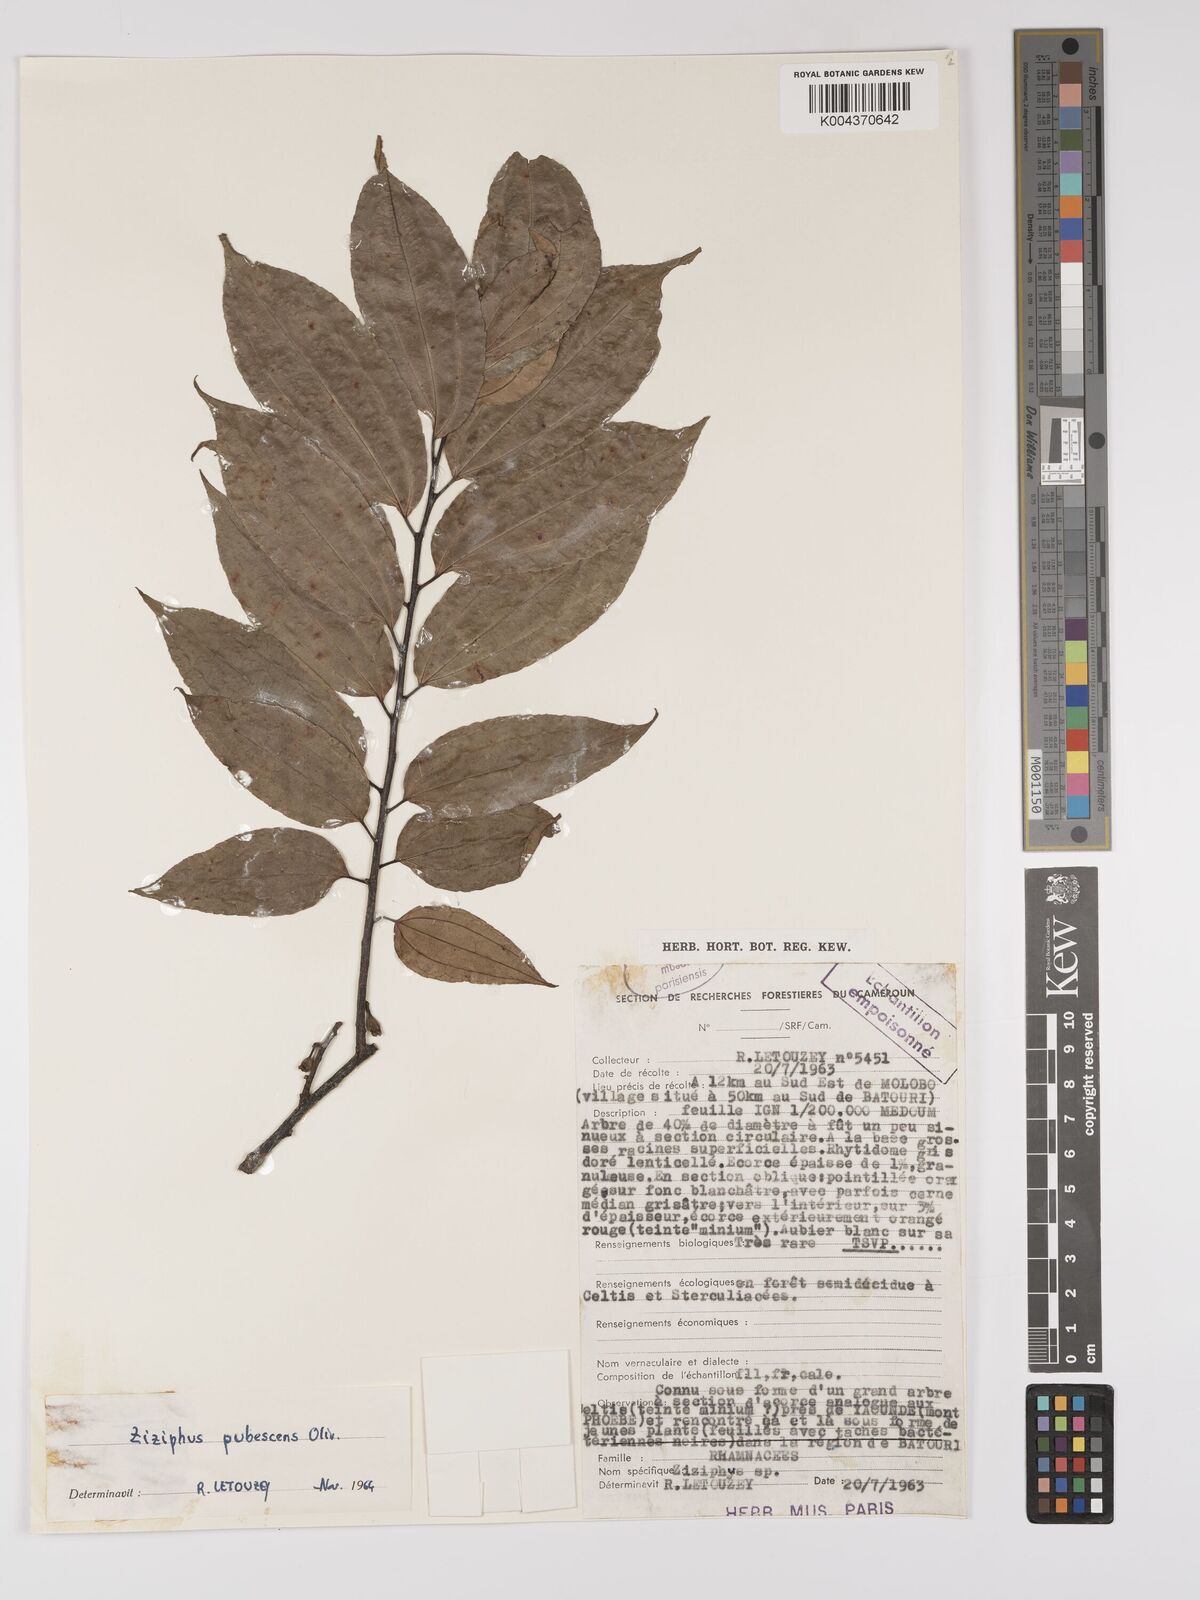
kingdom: Plantae
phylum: Tracheophyta
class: Magnoliopsida
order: Rosales
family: Rhamnaceae
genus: Ziziphus
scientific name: Ziziphus pubescens
